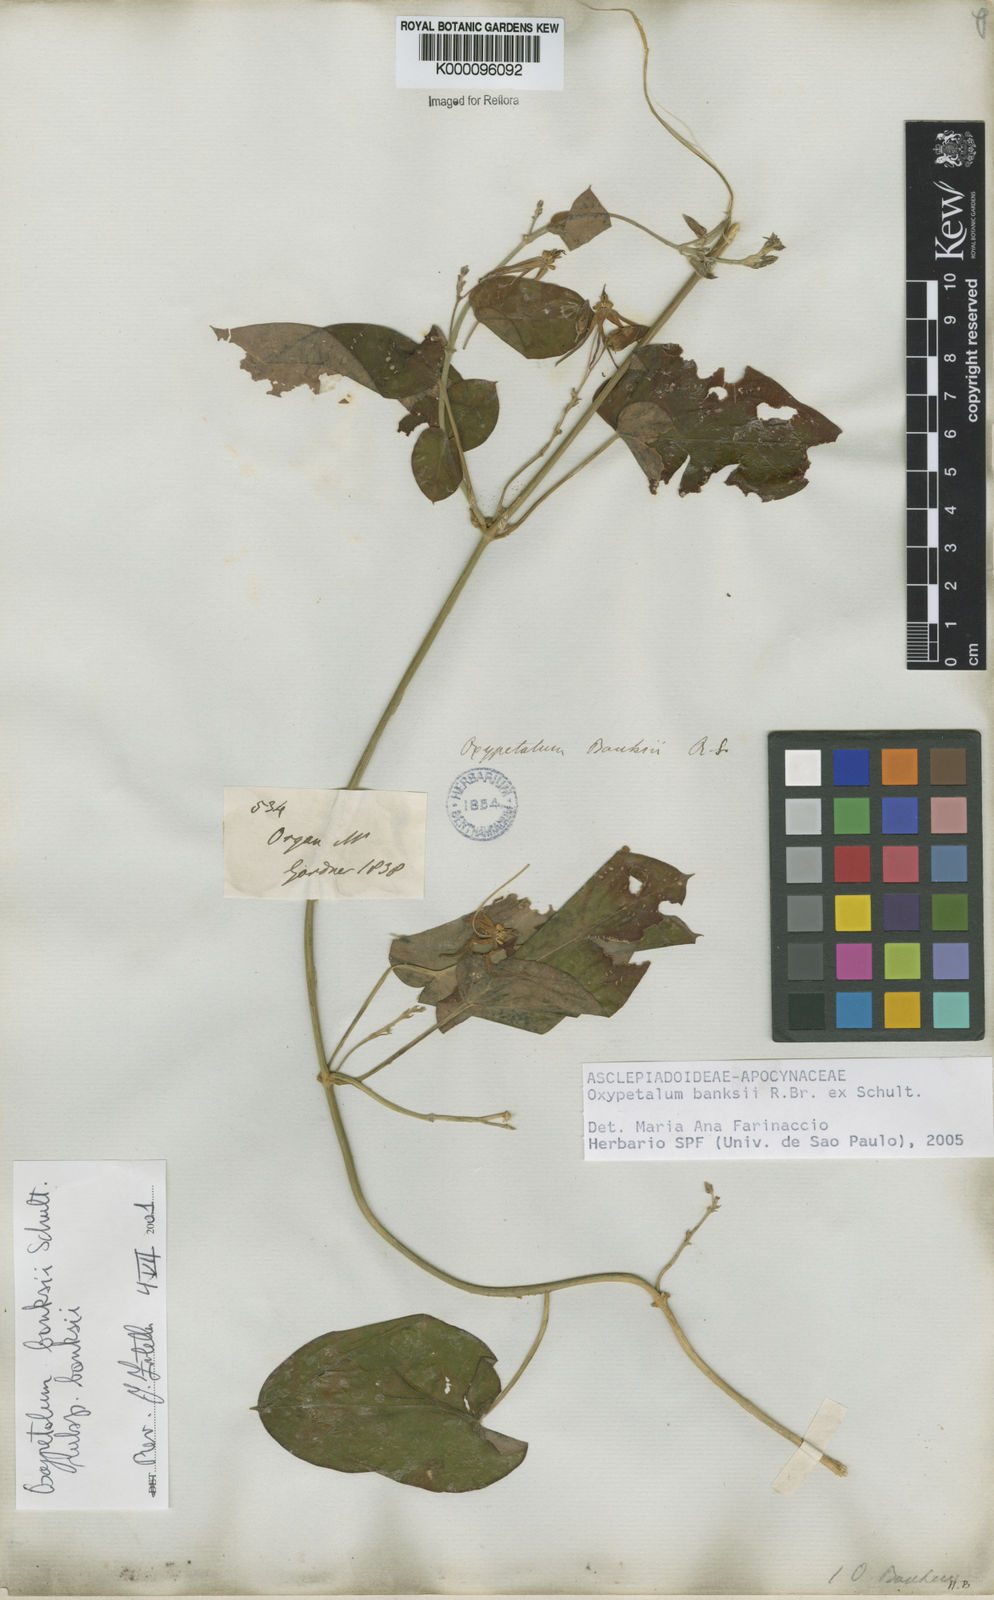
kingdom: Plantae
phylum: Tracheophyta
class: Magnoliopsida
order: Gentianales
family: Apocynaceae
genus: Oxypetalum
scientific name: Oxypetalum banksii
